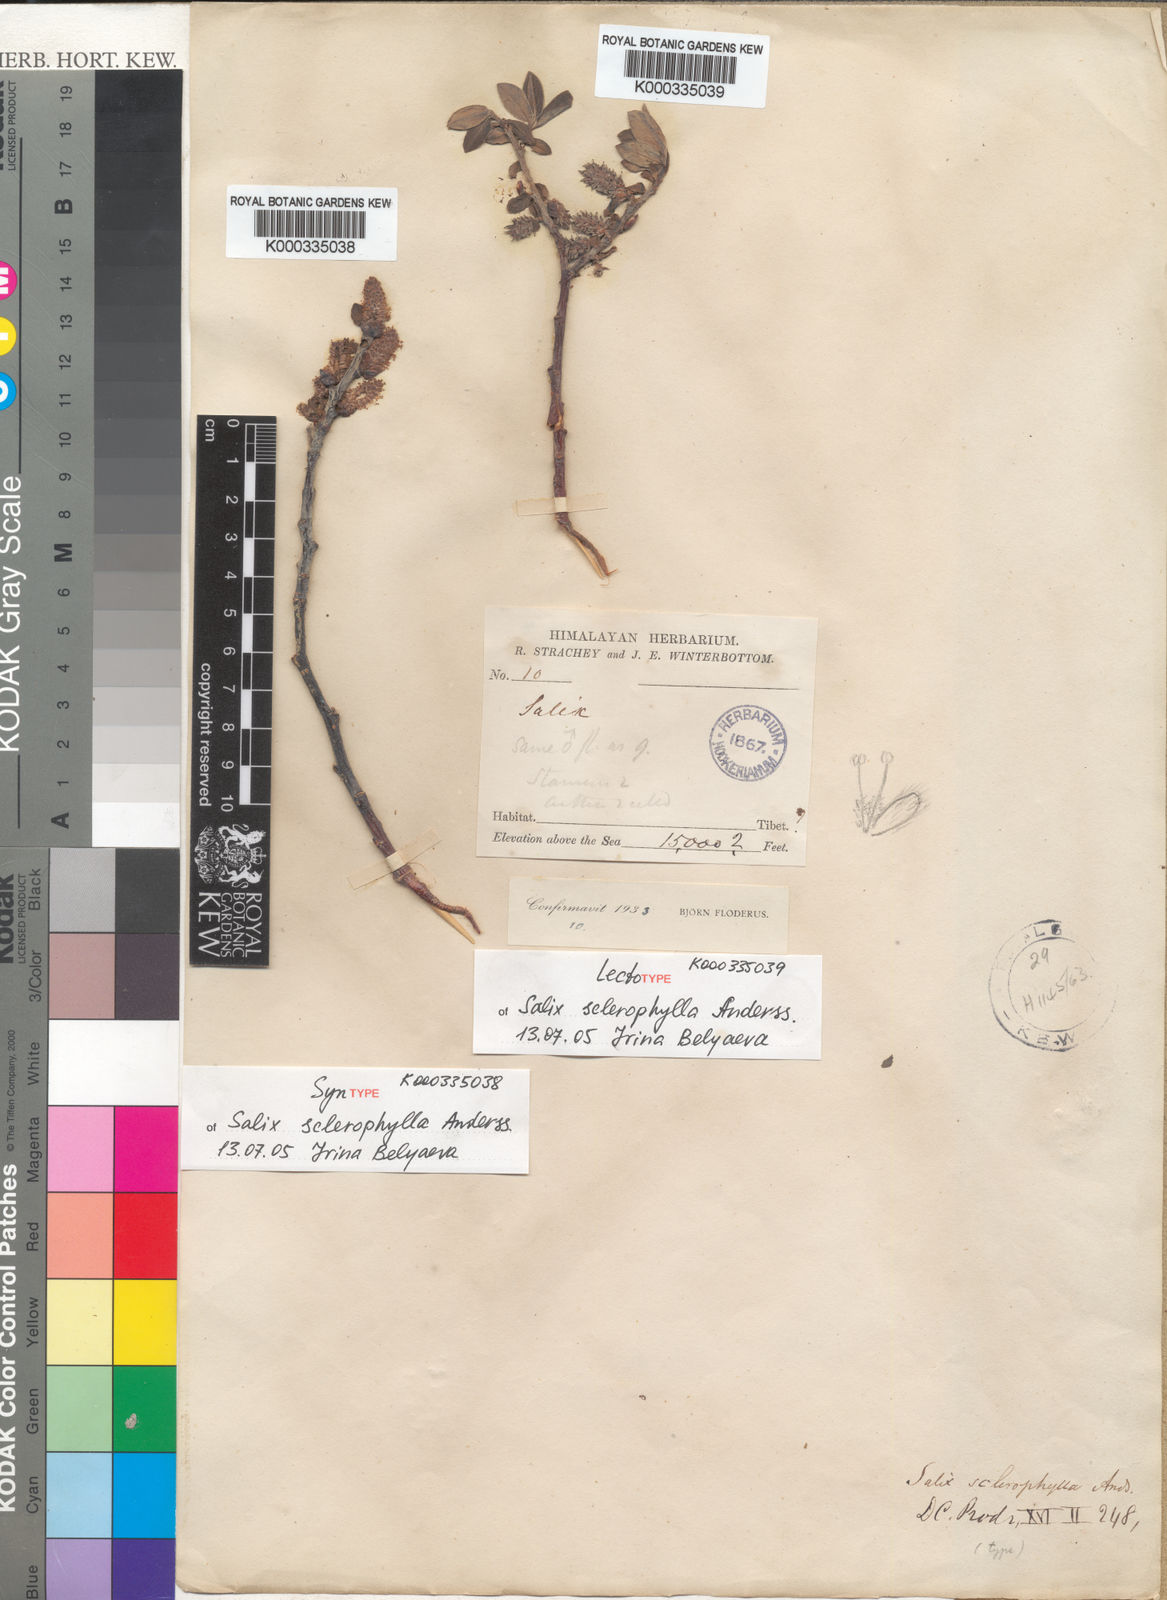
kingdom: Plantae
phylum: Tracheophyta
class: Magnoliopsida
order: Malpighiales
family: Salicaceae
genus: Salix
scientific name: Salix sclerophylla
